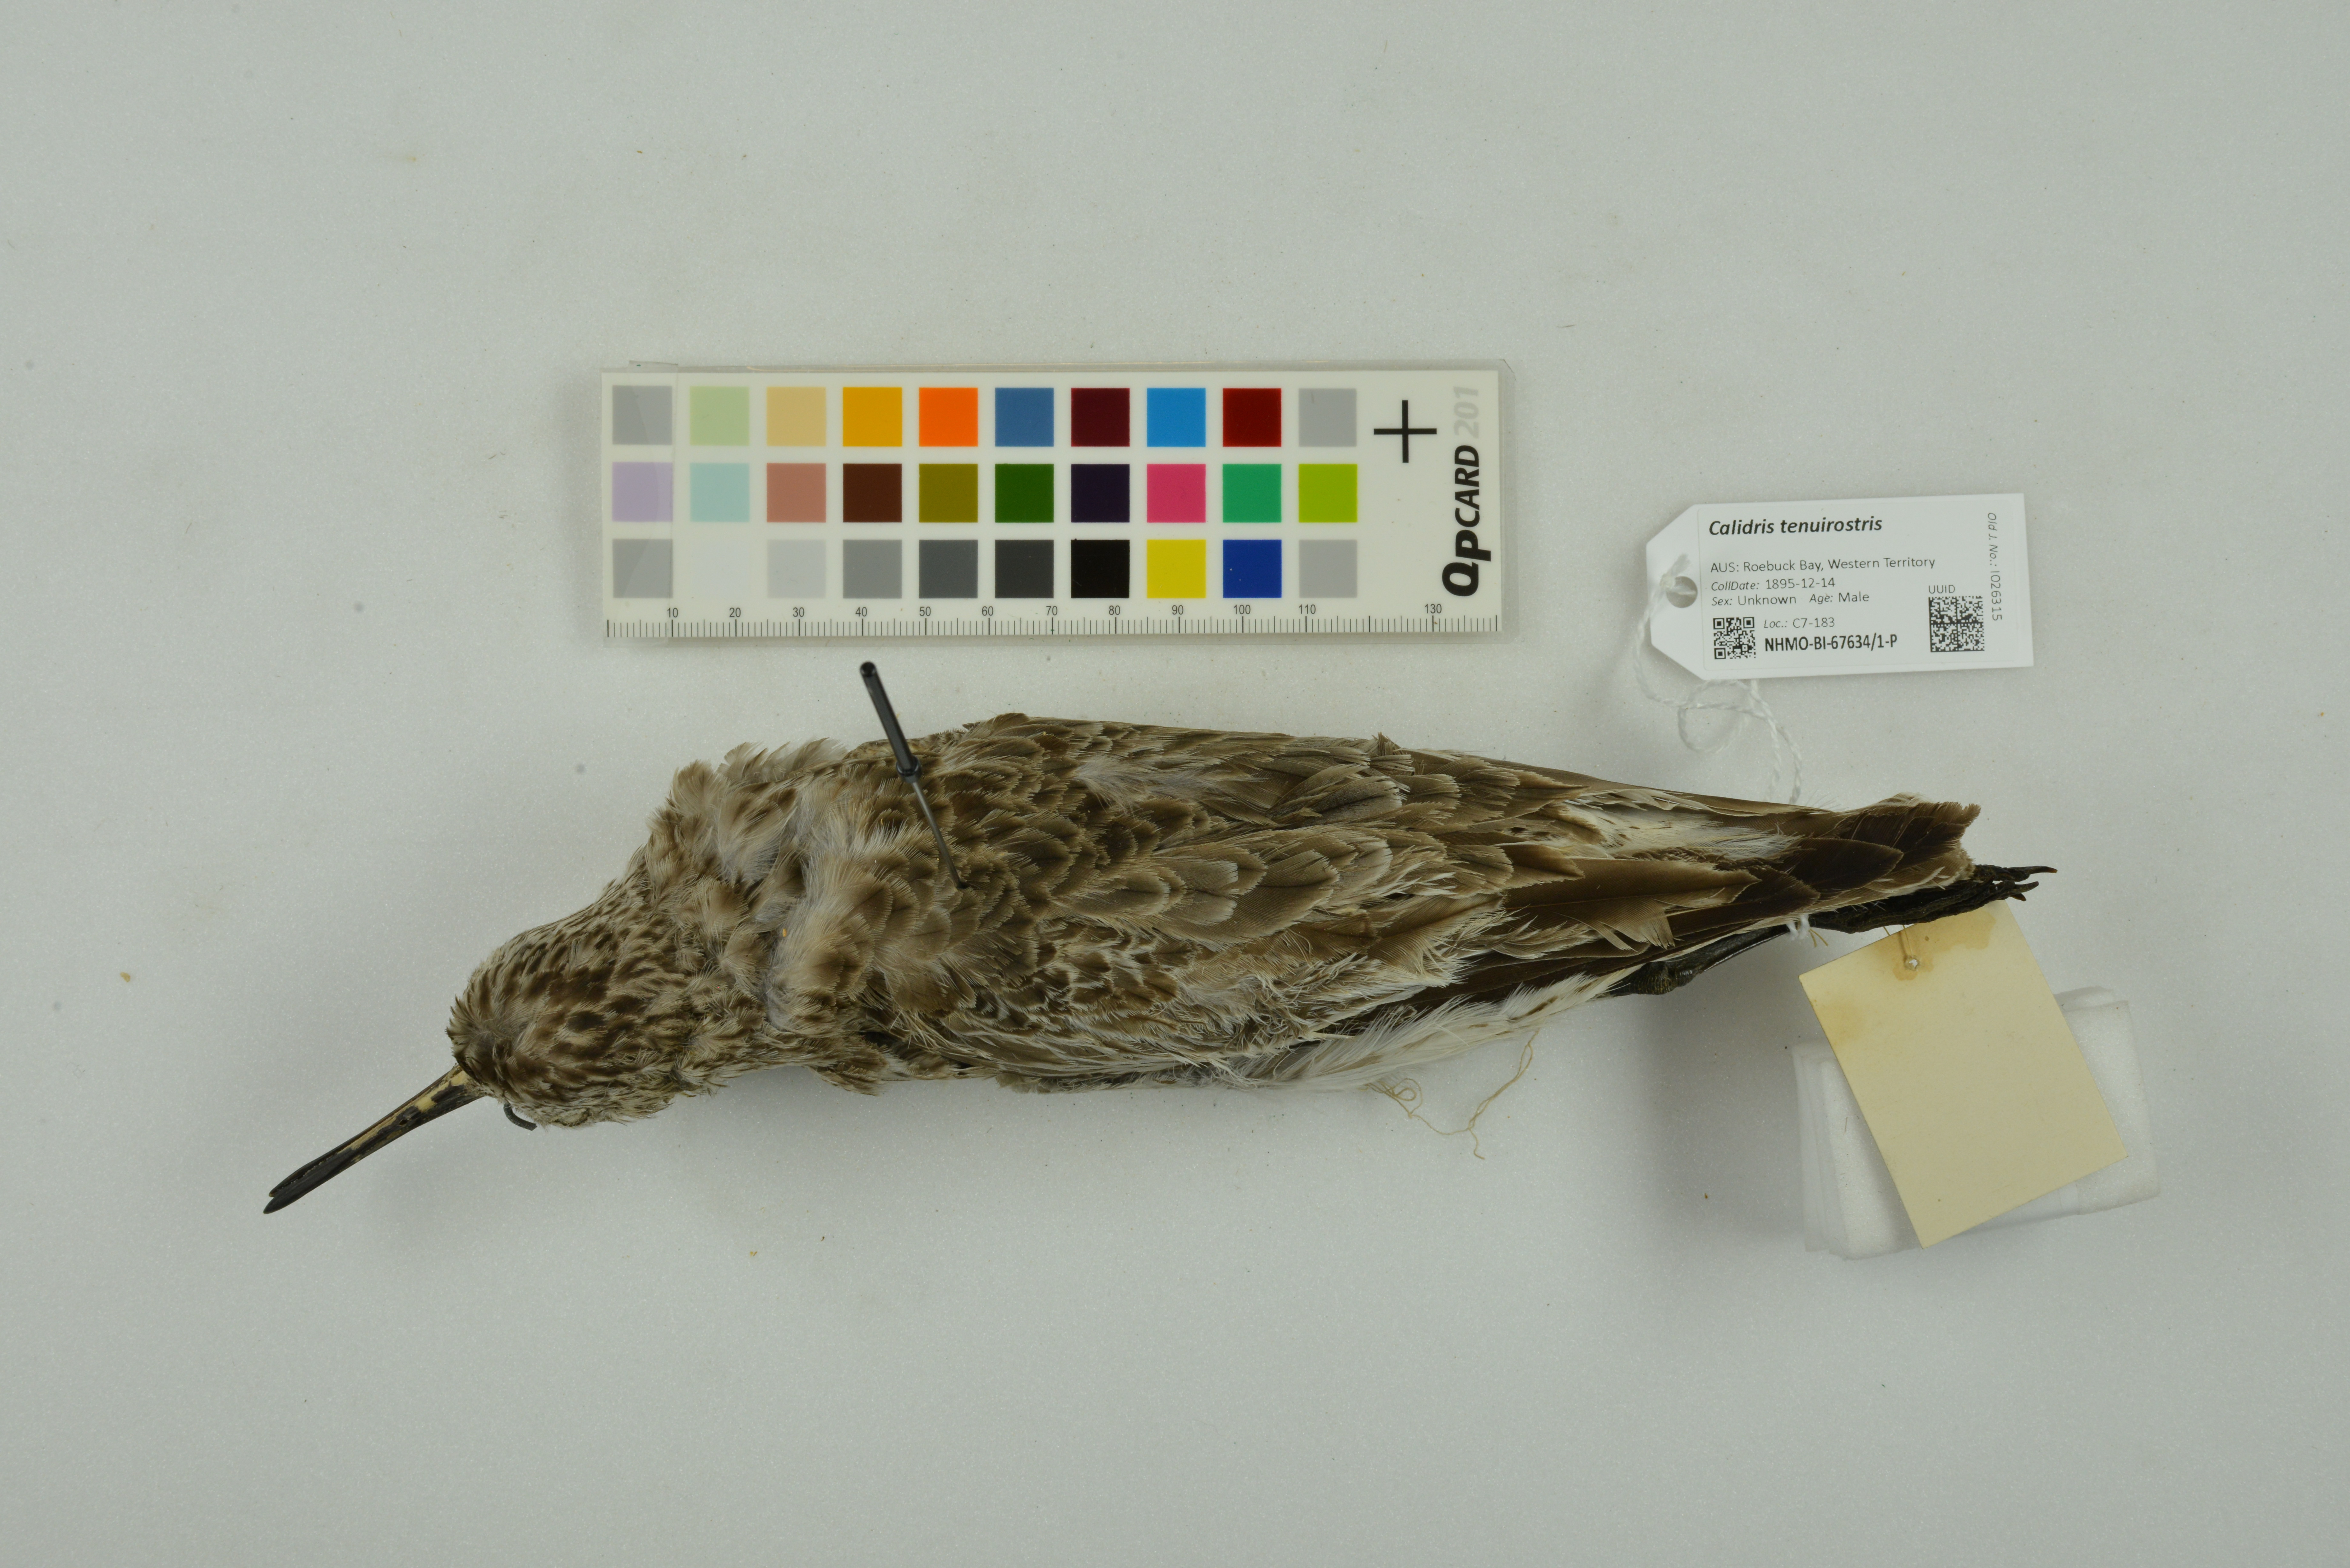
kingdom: Animalia
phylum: Chordata
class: Aves
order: Charadriiformes
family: Scolopacidae
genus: Calidris
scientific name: Calidris tenuirostris
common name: Great knot
